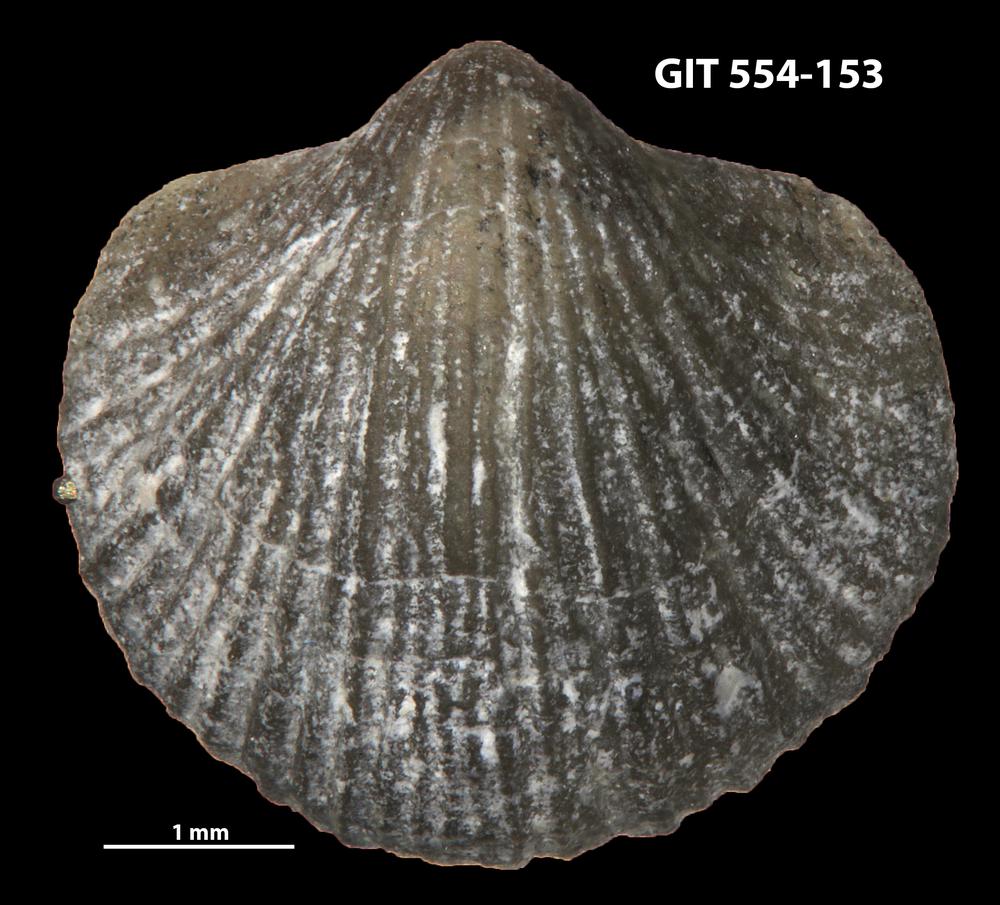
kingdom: Animalia
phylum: Brachiopoda
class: Rhynchonellata
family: Dalmanellidae
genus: Resserella
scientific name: Resserella sabrinae
